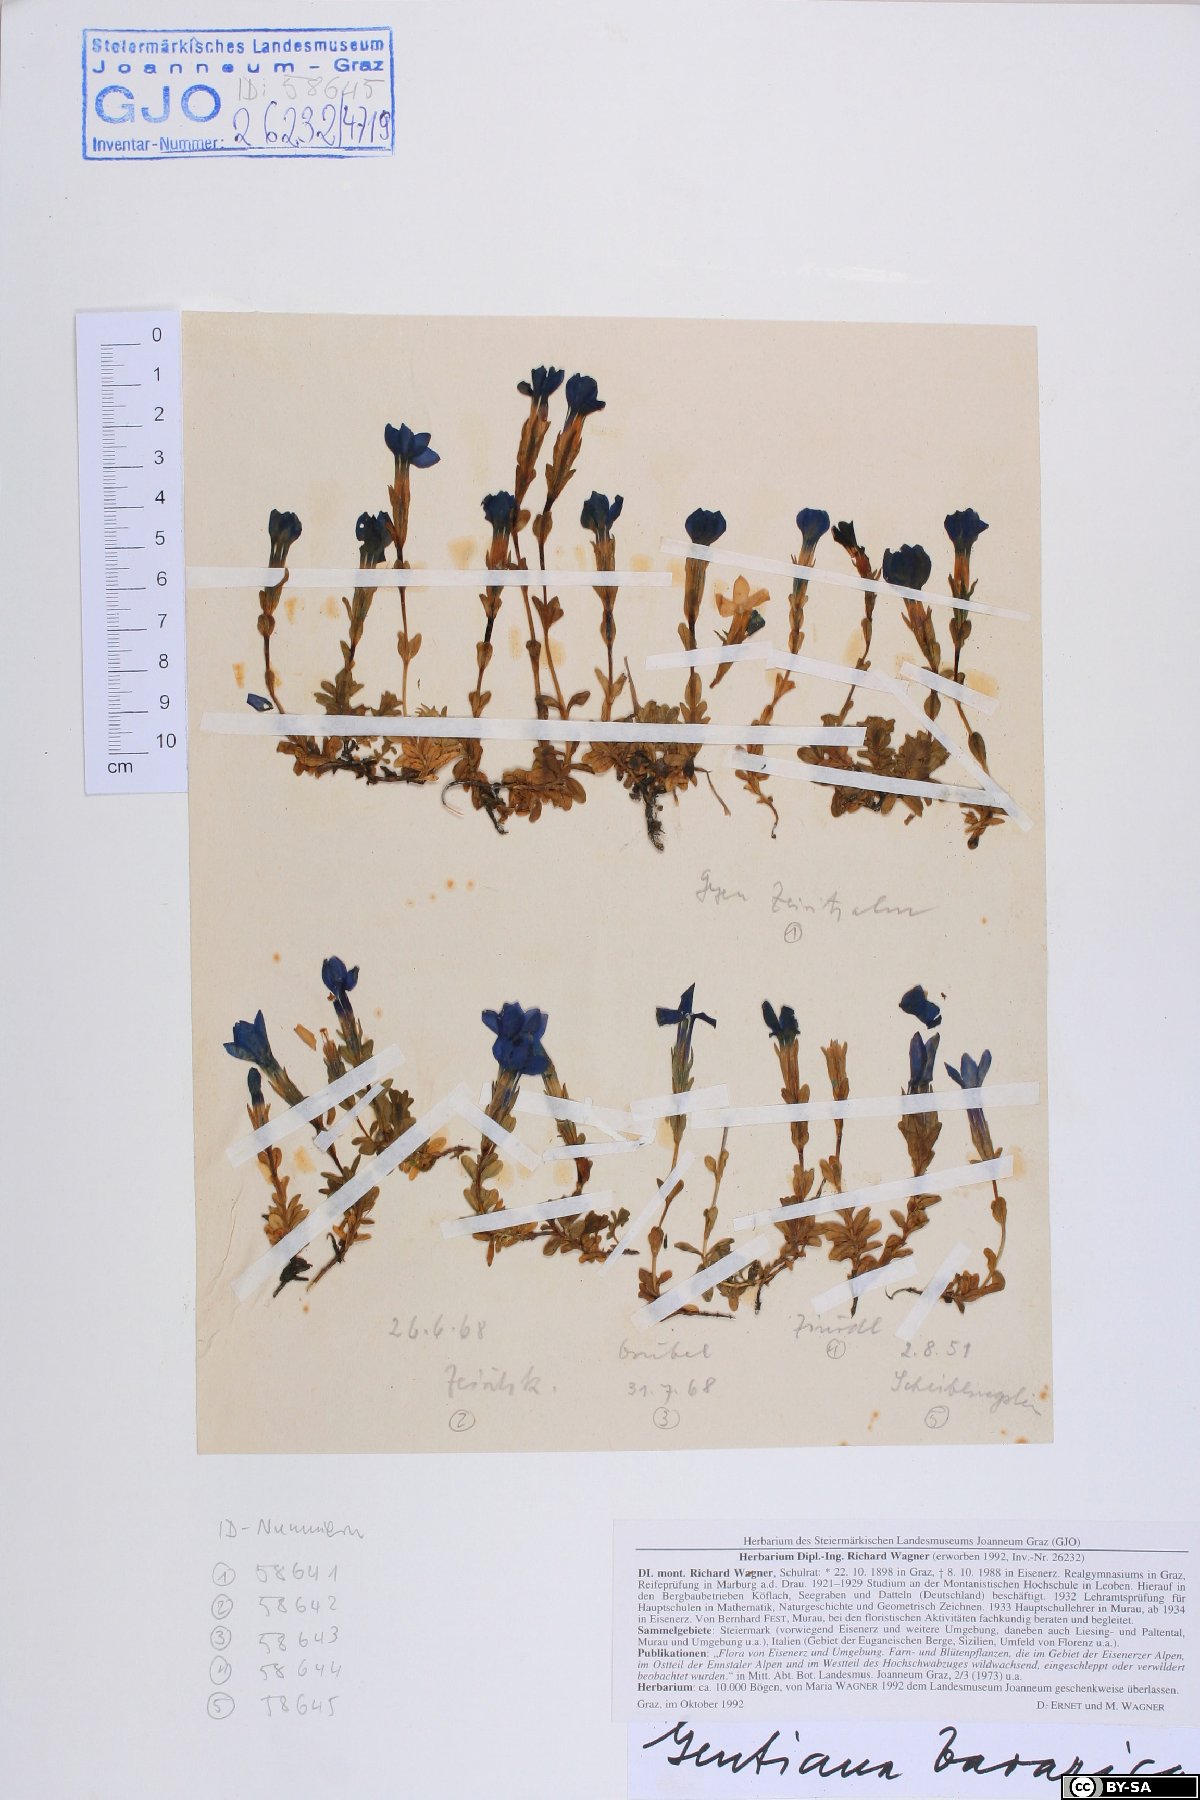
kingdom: Plantae
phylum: Tracheophyta
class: Magnoliopsida
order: Gentianales
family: Gentianaceae
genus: Gentiana
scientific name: Gentiana bavarica
